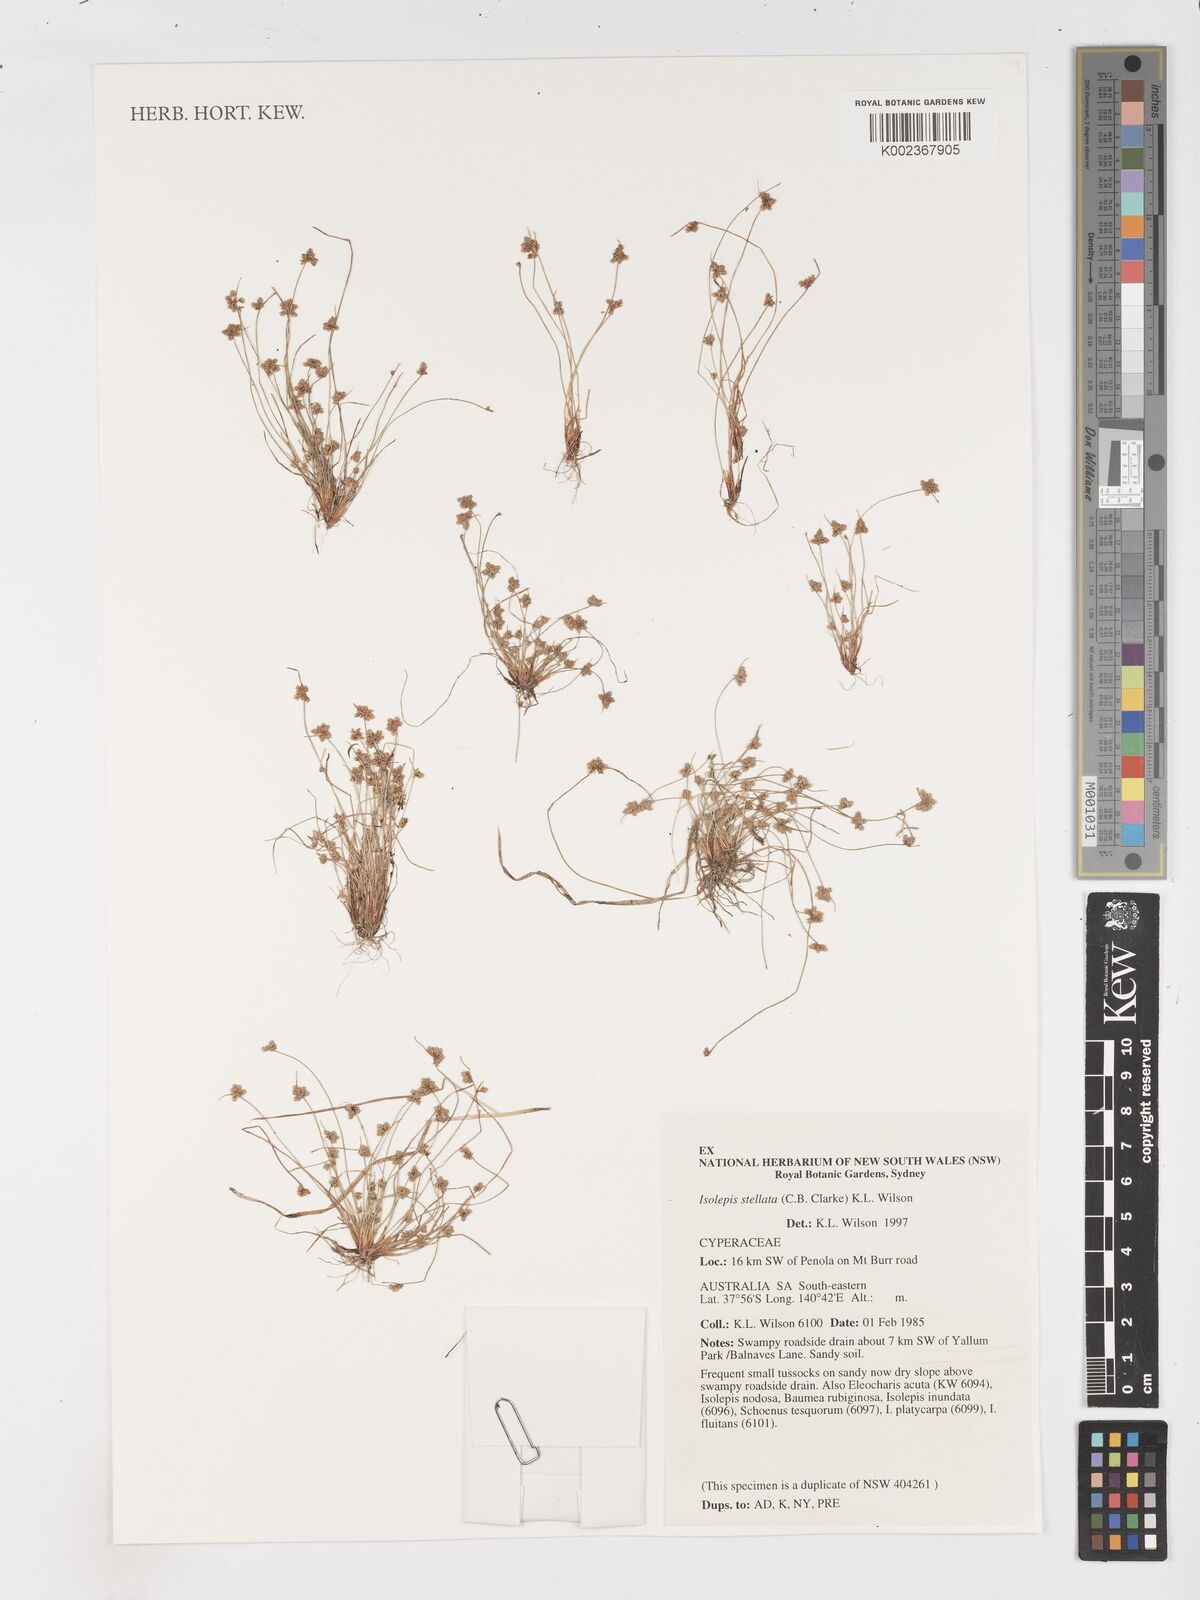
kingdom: Plantae
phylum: Tracheophyta
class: Liliopsida
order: Poales
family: Cyperaceae
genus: Isolepis
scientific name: Isolepis stellata
